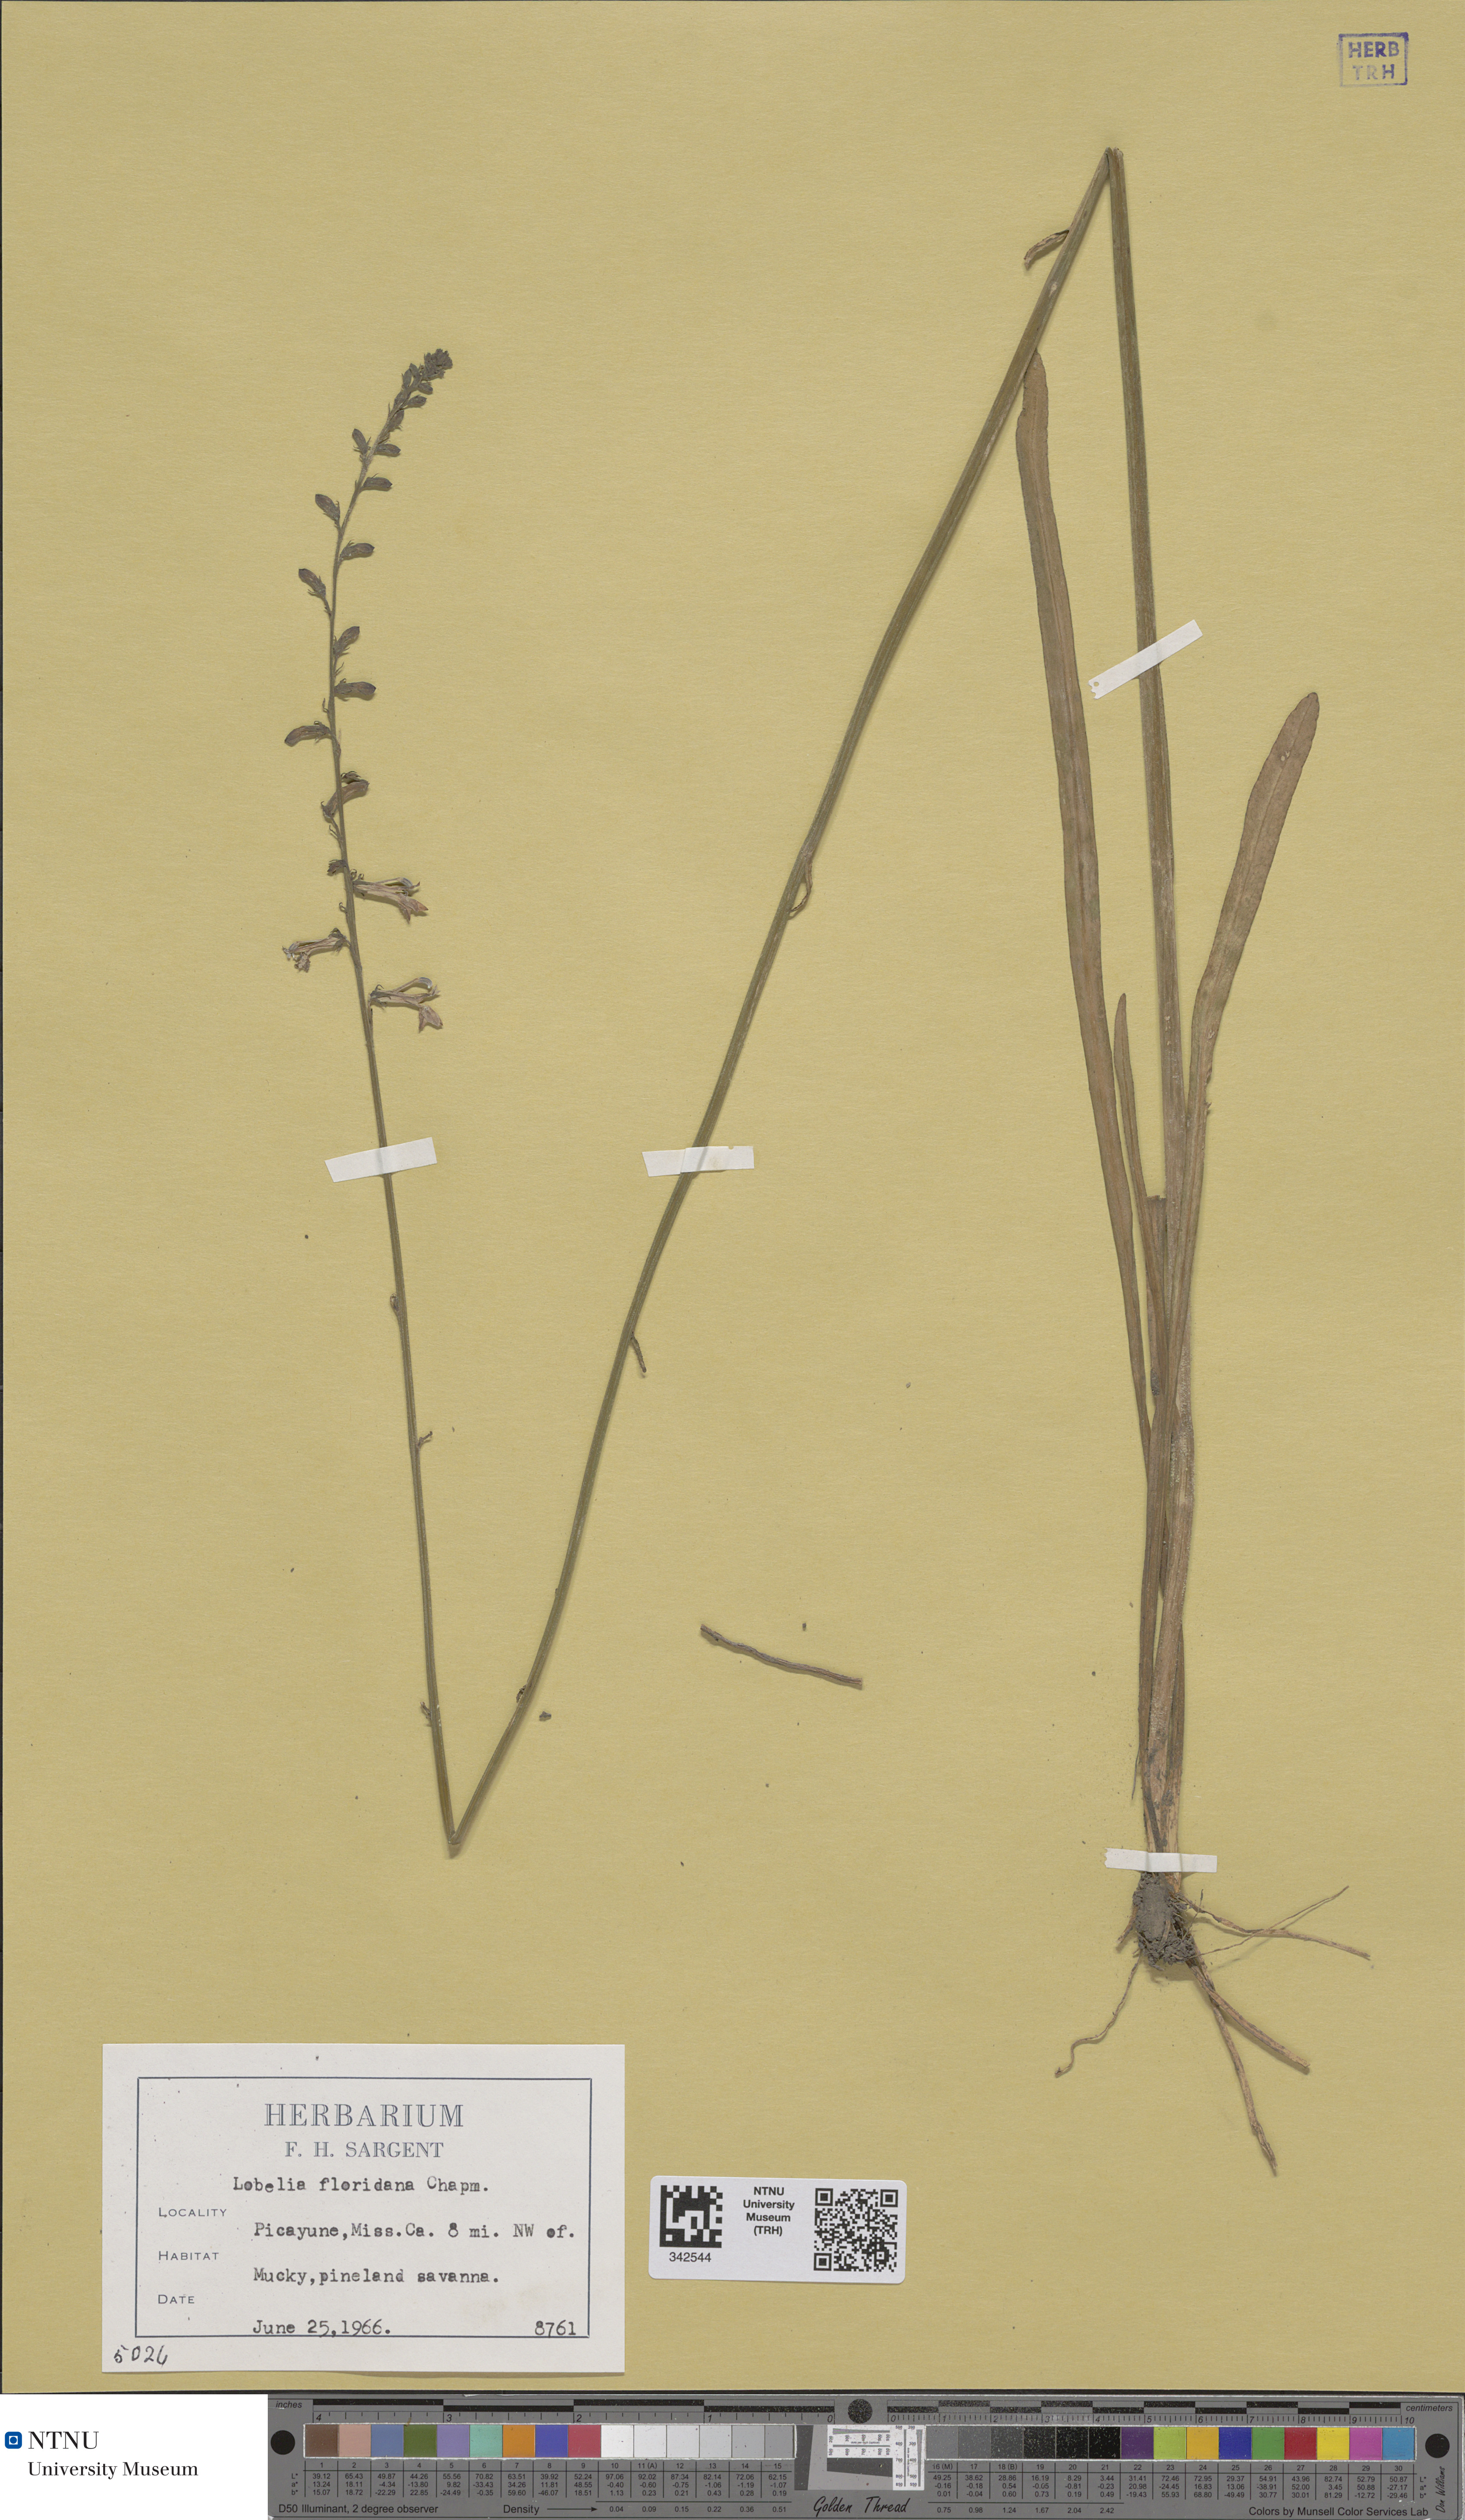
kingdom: Plantae
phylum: Tracheophyta
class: Magnoliopsida
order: Asterales
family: Campanulaceae
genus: Lobelia
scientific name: Lobelia floridana
